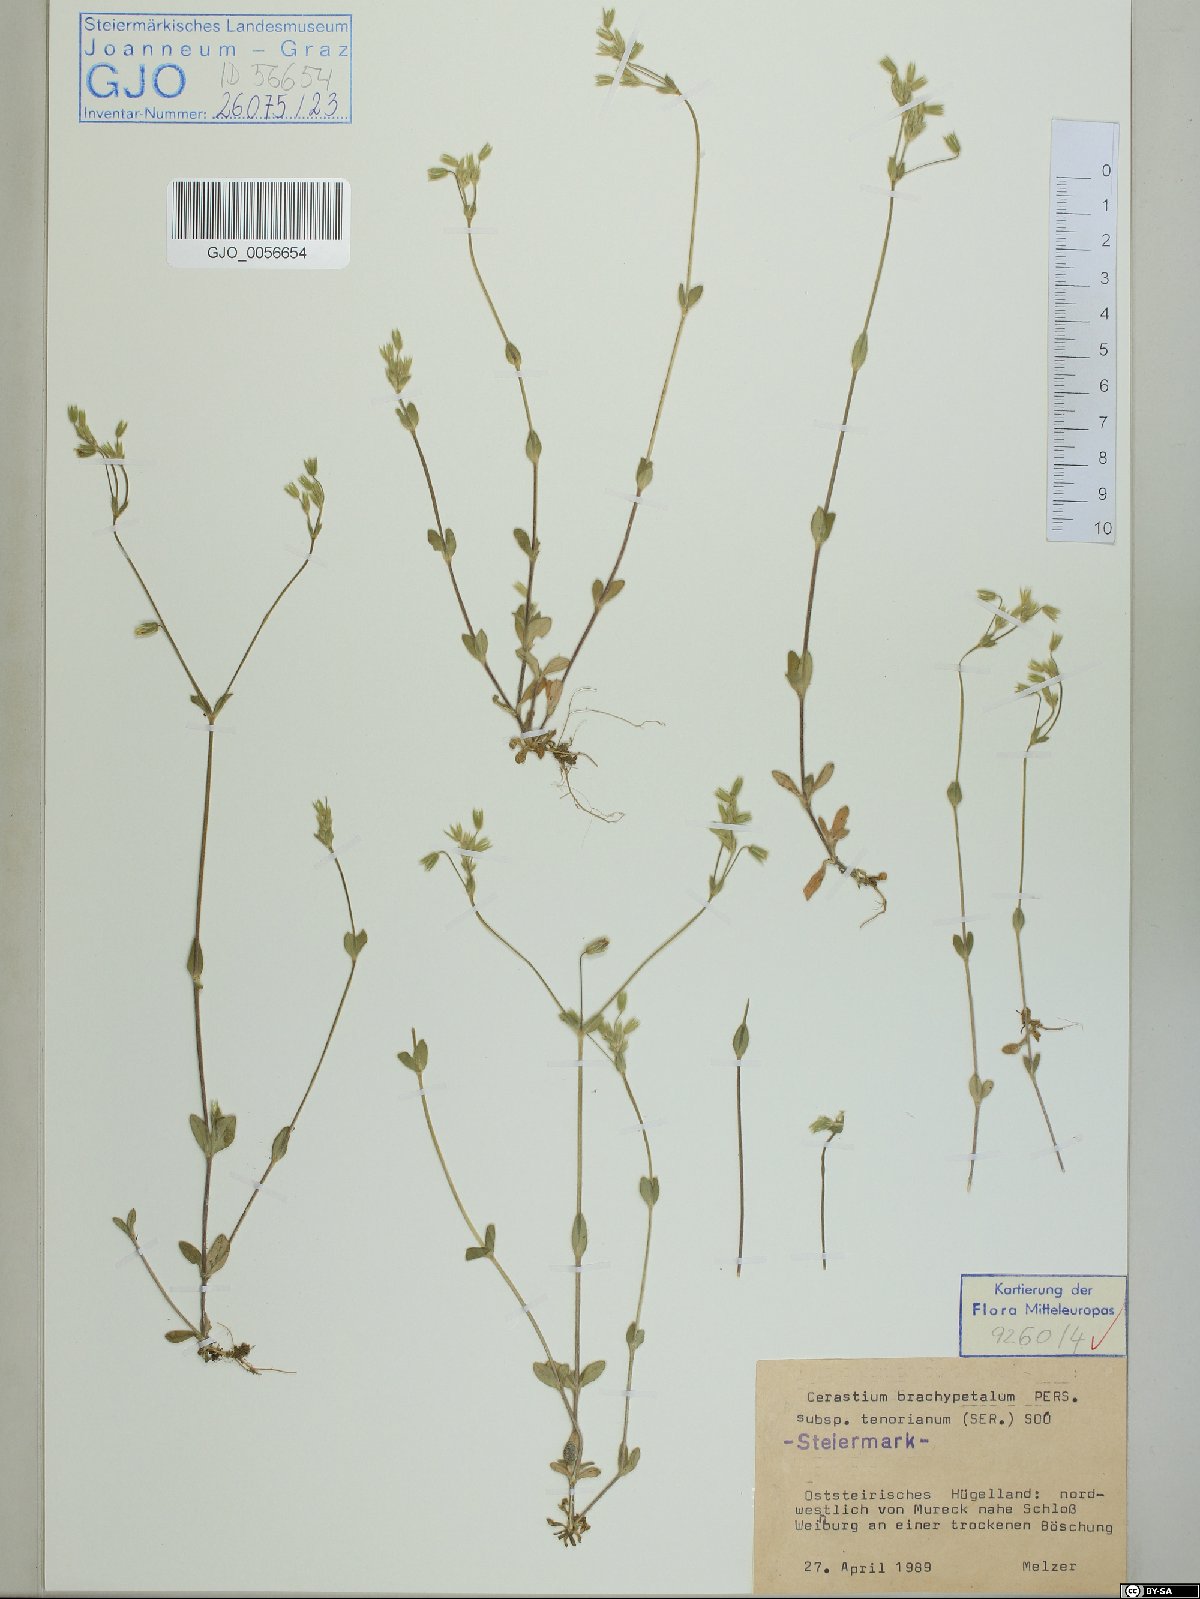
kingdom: Plantae
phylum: Tracheophyta
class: Magnoliopsida
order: Caryophyllales
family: Caryophyllaceae
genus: Cerastium
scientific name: Cerastium tenoreanum
